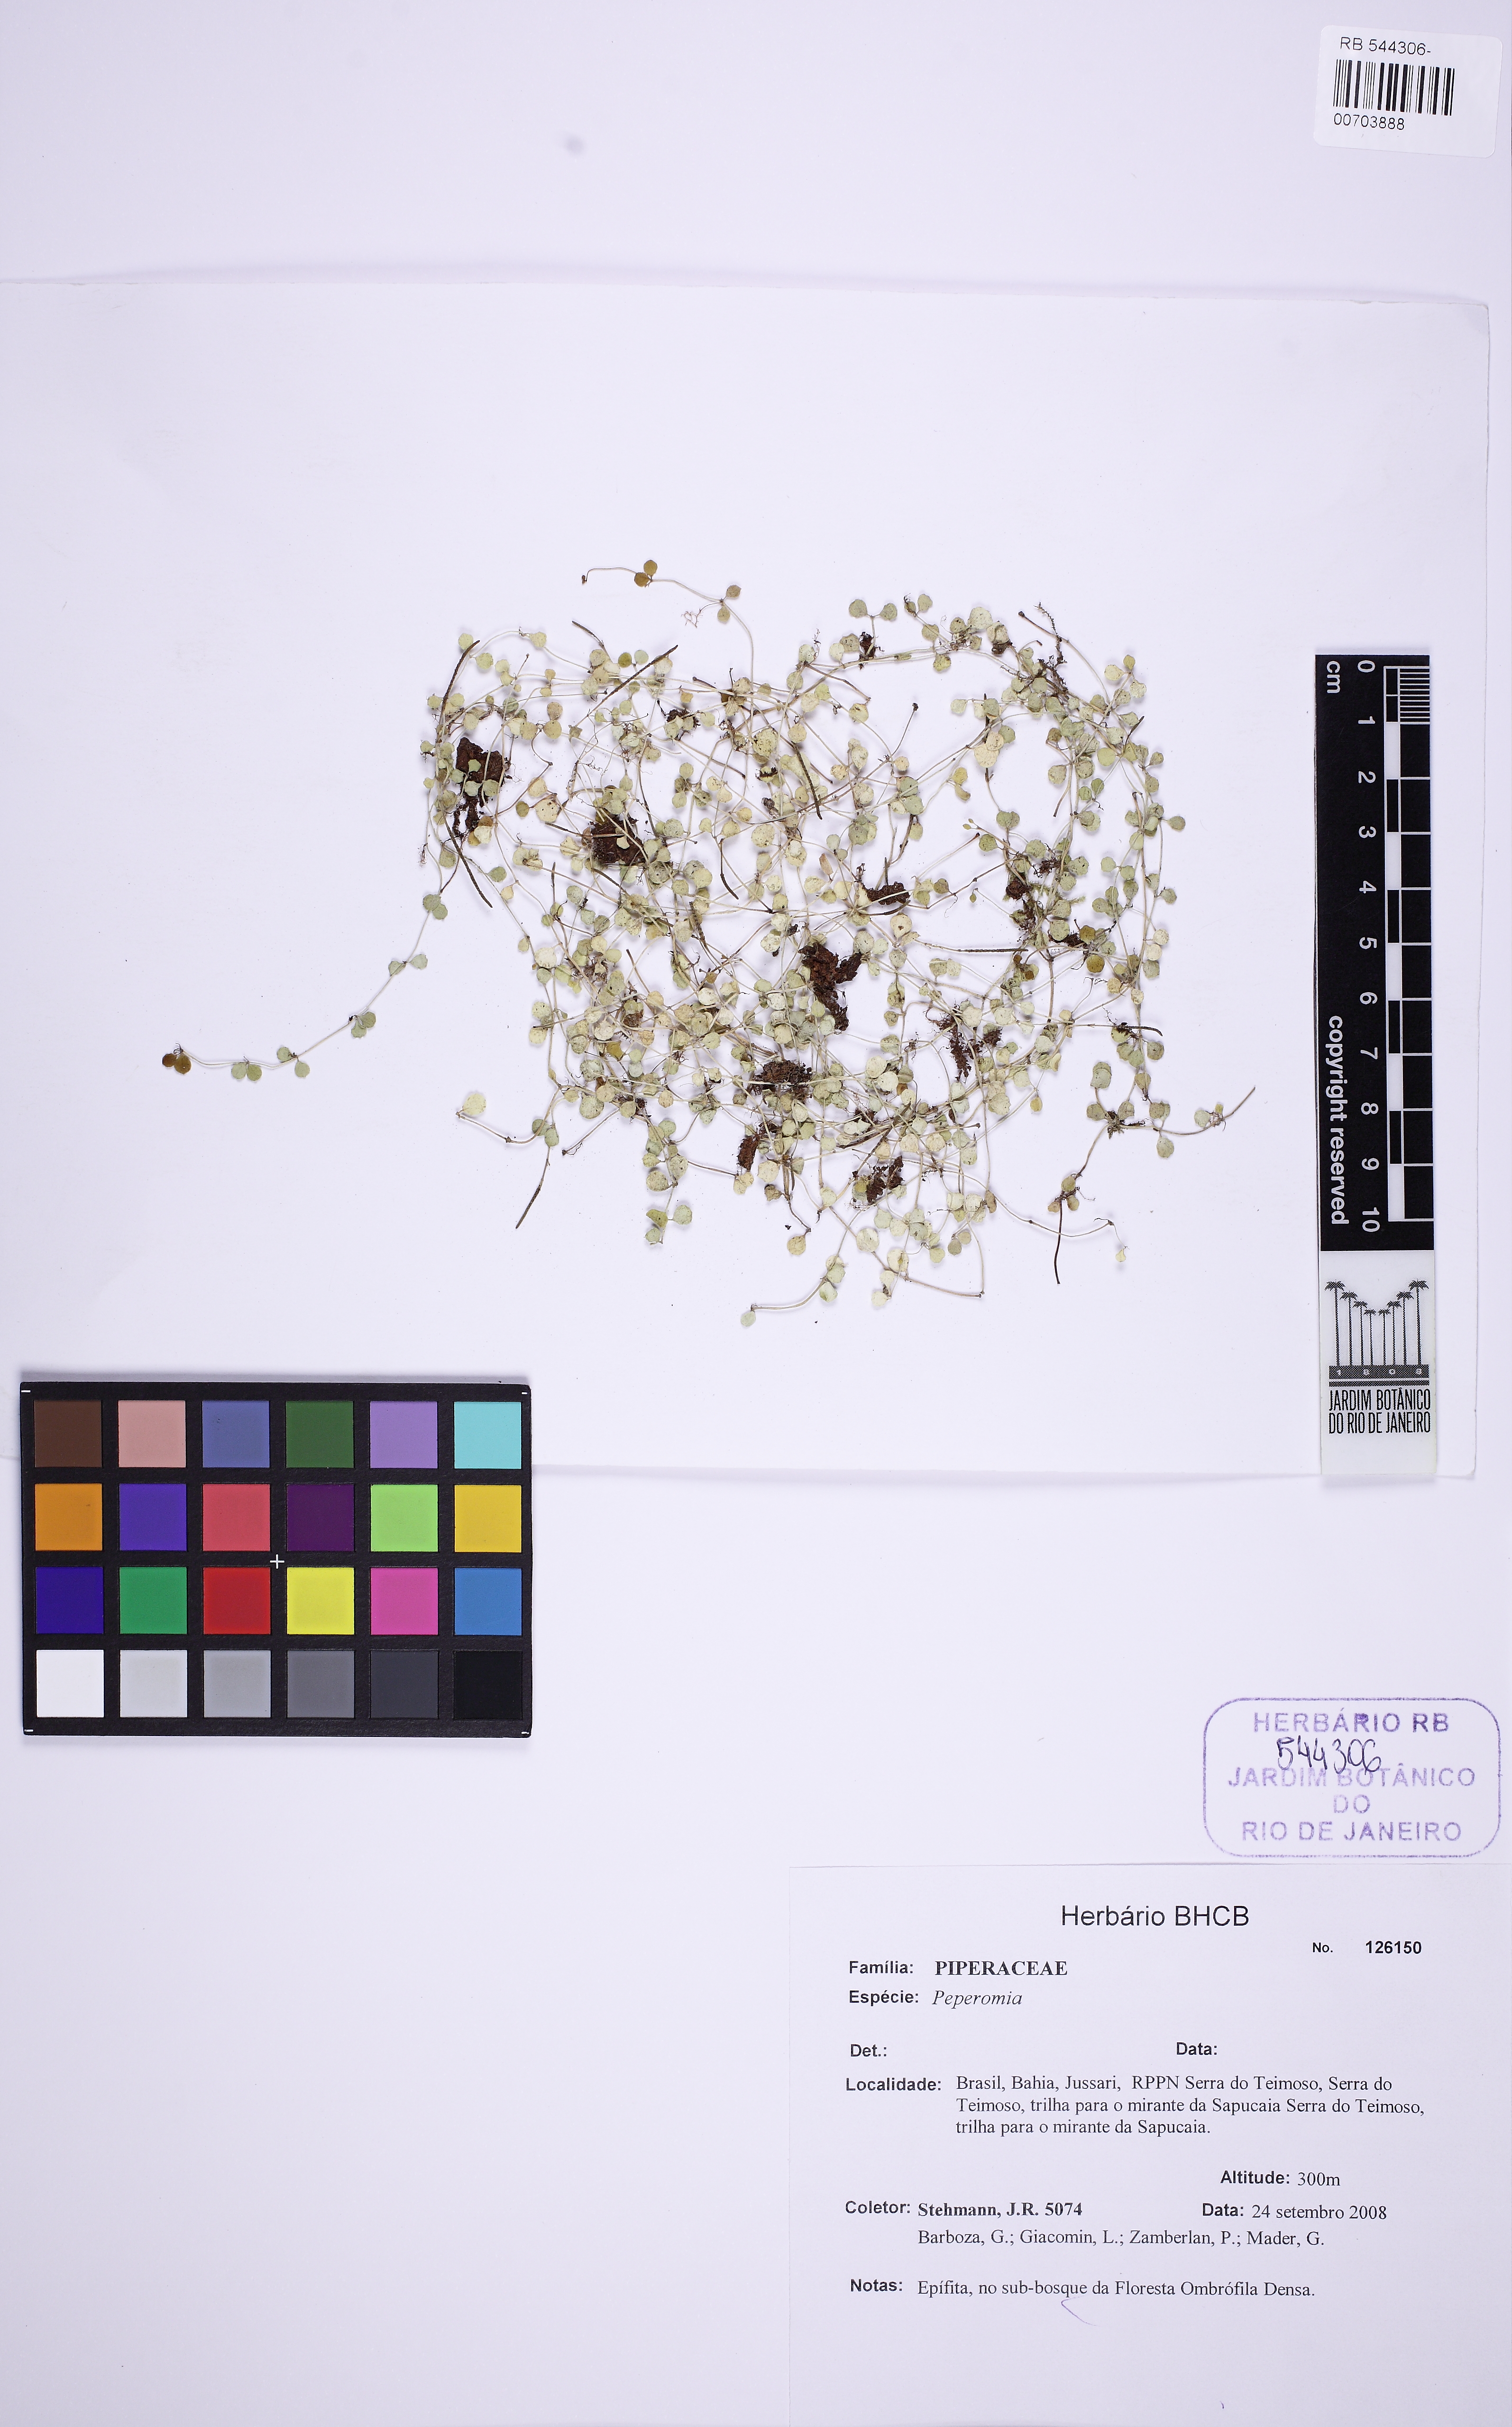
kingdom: Plantae
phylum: Tracheophyta
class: Magnoliopsida
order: Piperales
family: Piperaceae
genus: Peperomia
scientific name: Peperomia delicatula
